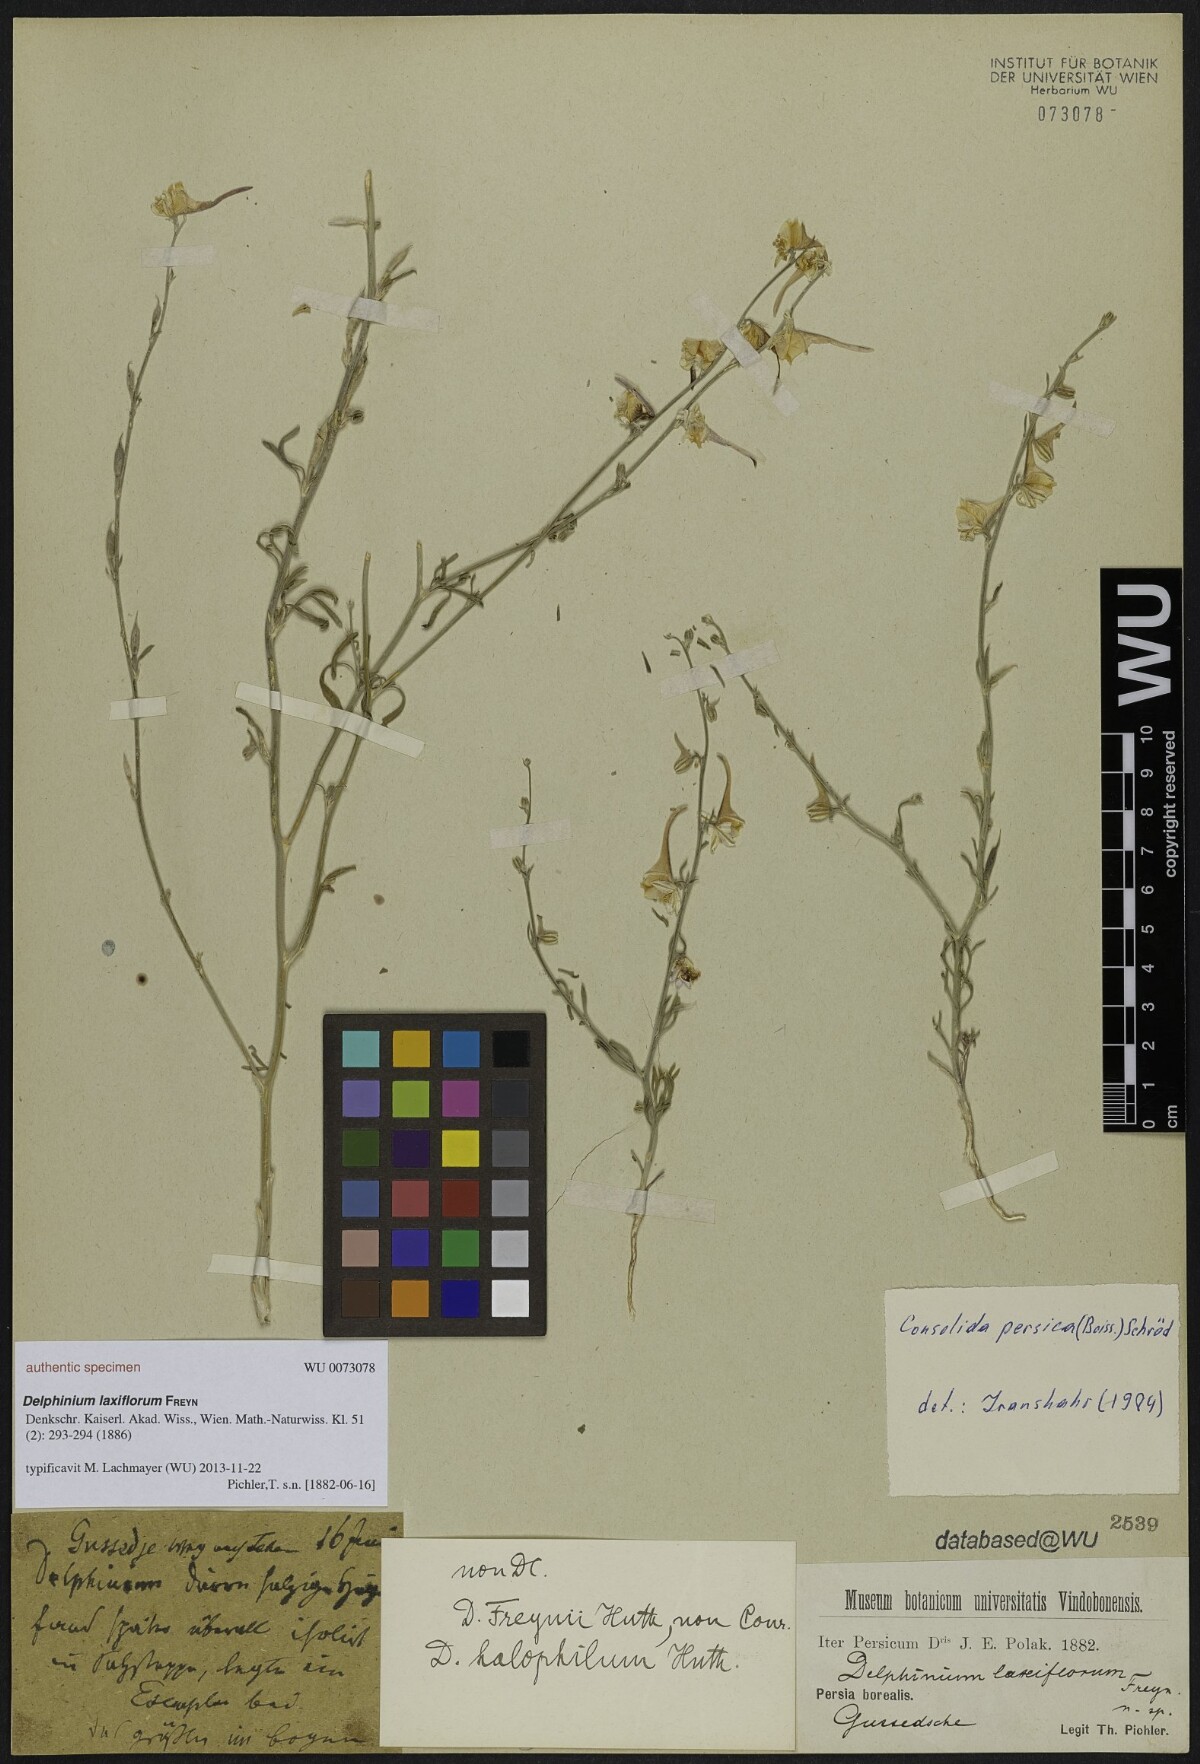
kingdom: Plantae
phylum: Tracheophyta
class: Magnoliopsida
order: Ranunculales
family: Ranunculaceae
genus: Delphinium
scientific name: Delphinium halophilum
